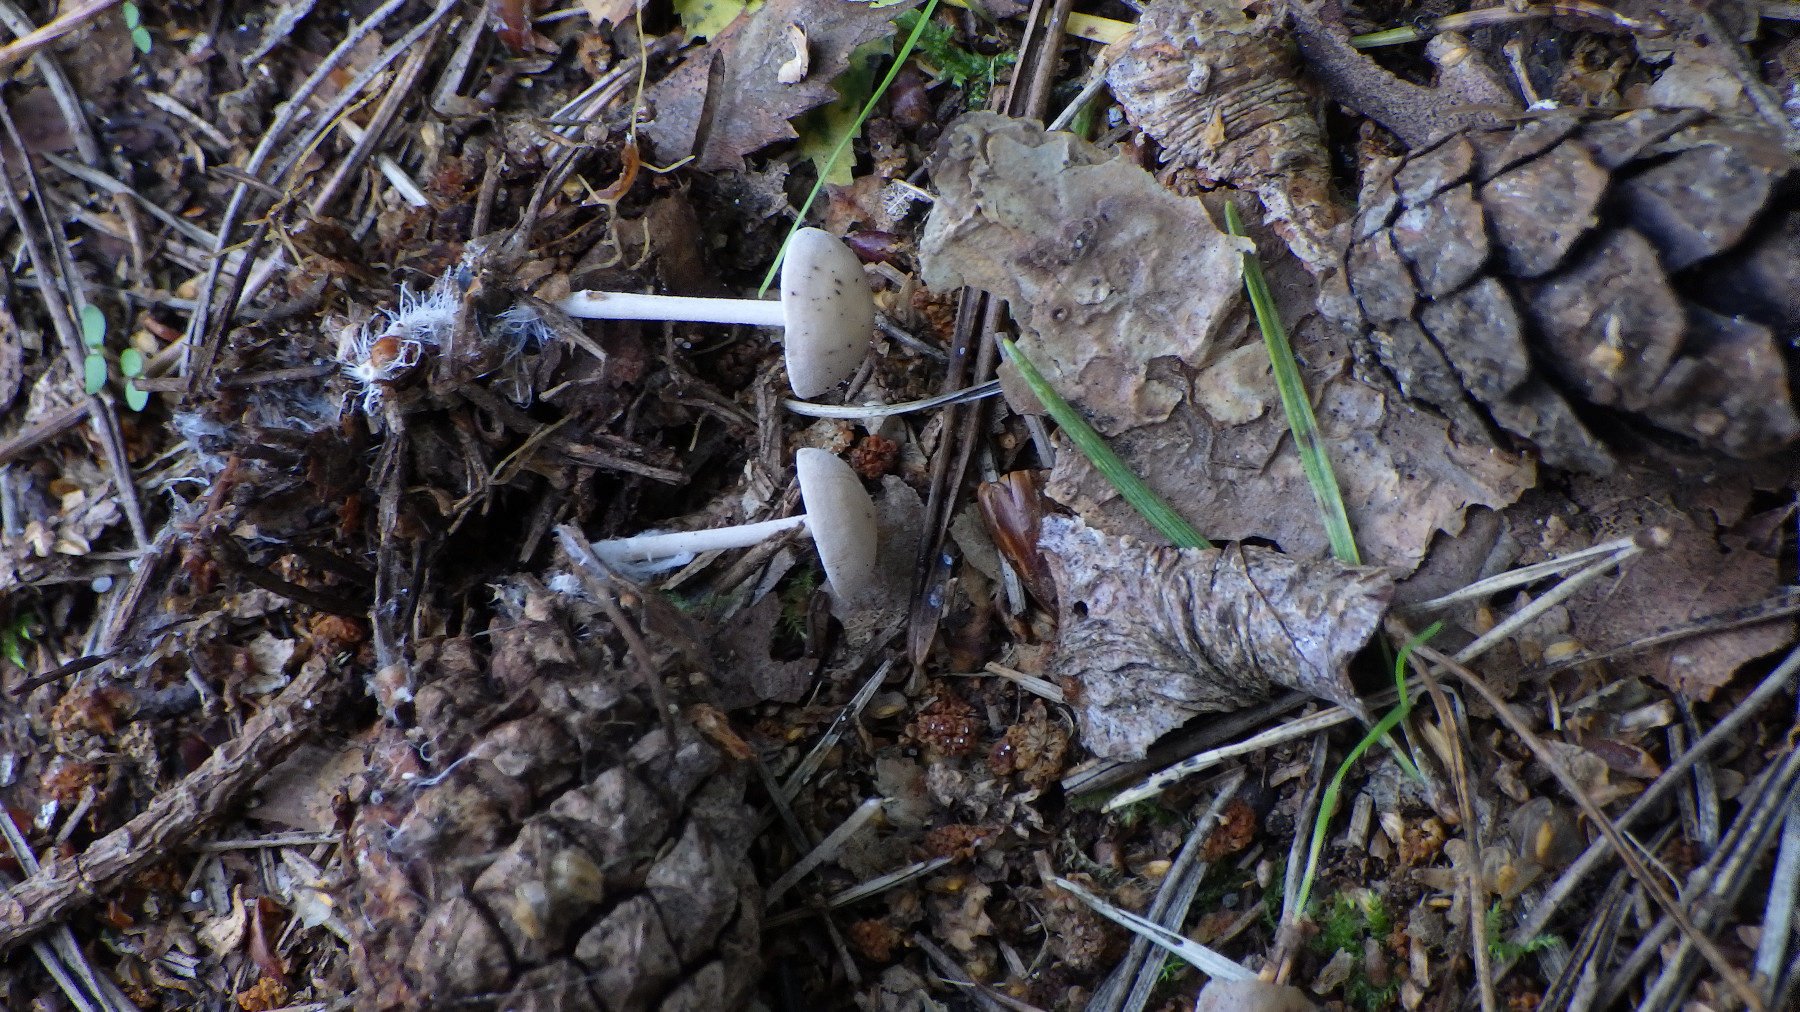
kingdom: Fungi
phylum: Basidiomycota
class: Agaricomycetes
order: Agaricales
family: Marasmiaceae
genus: Baeospora
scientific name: Baeospora myosura
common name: koglebruskhat
